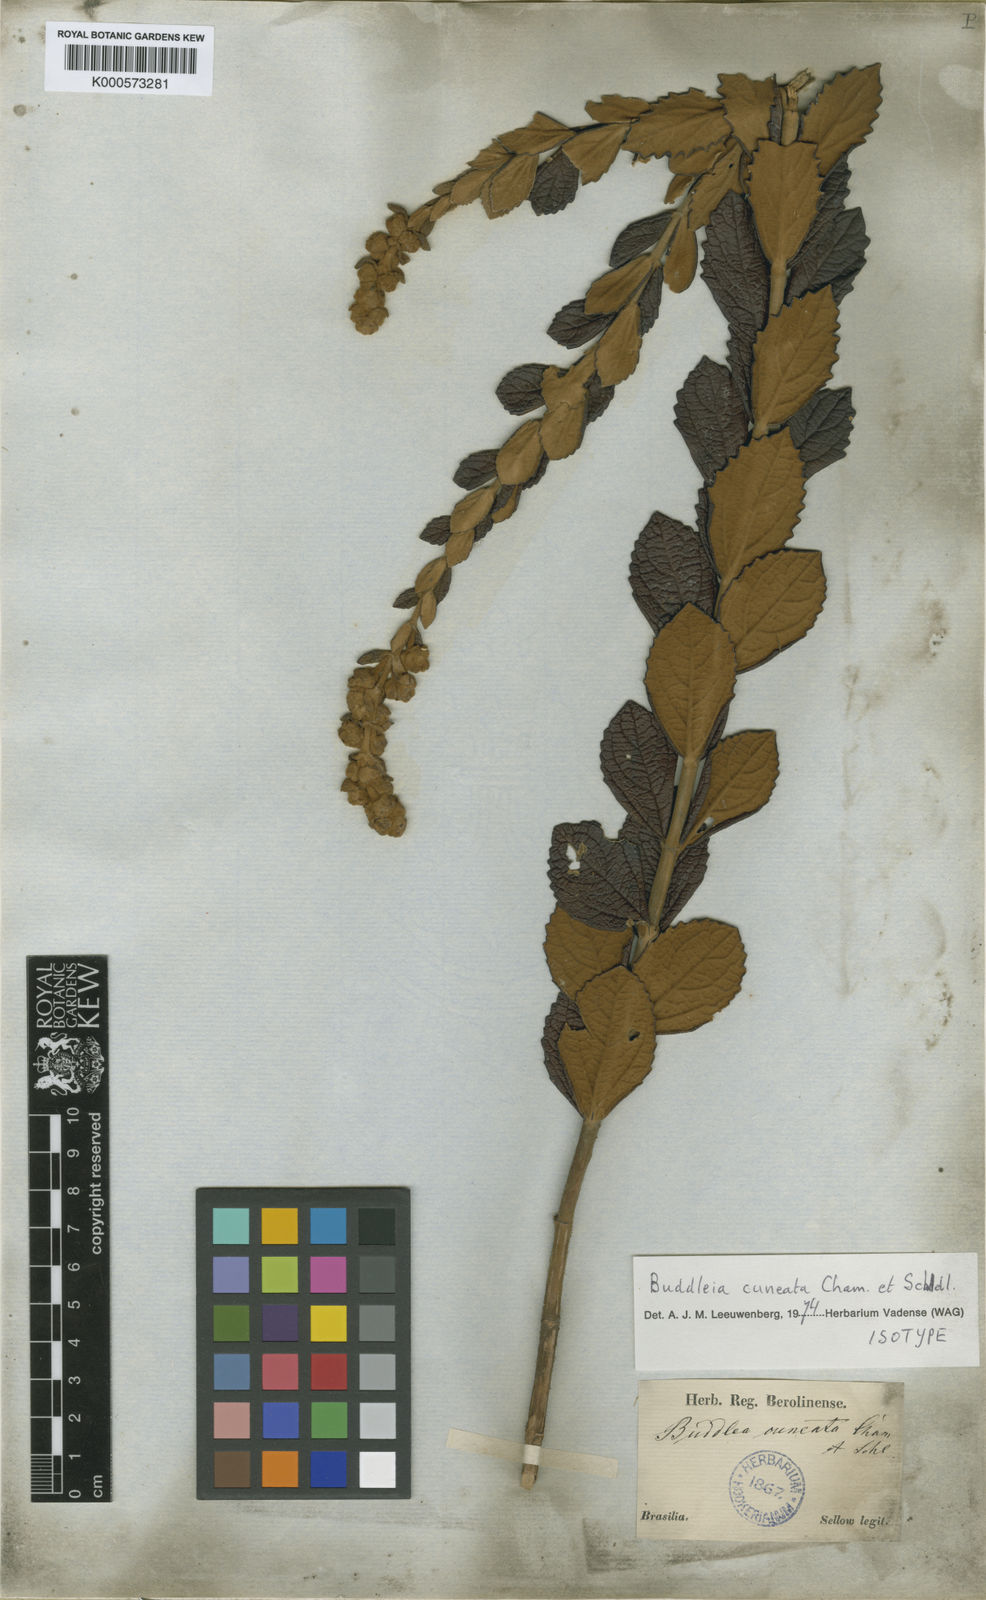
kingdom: Plantae
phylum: Tracheophyta
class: Magnoliopsida
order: Lamiales
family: Scrophulariaceae
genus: Buddleja
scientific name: Buddleja cuneata
